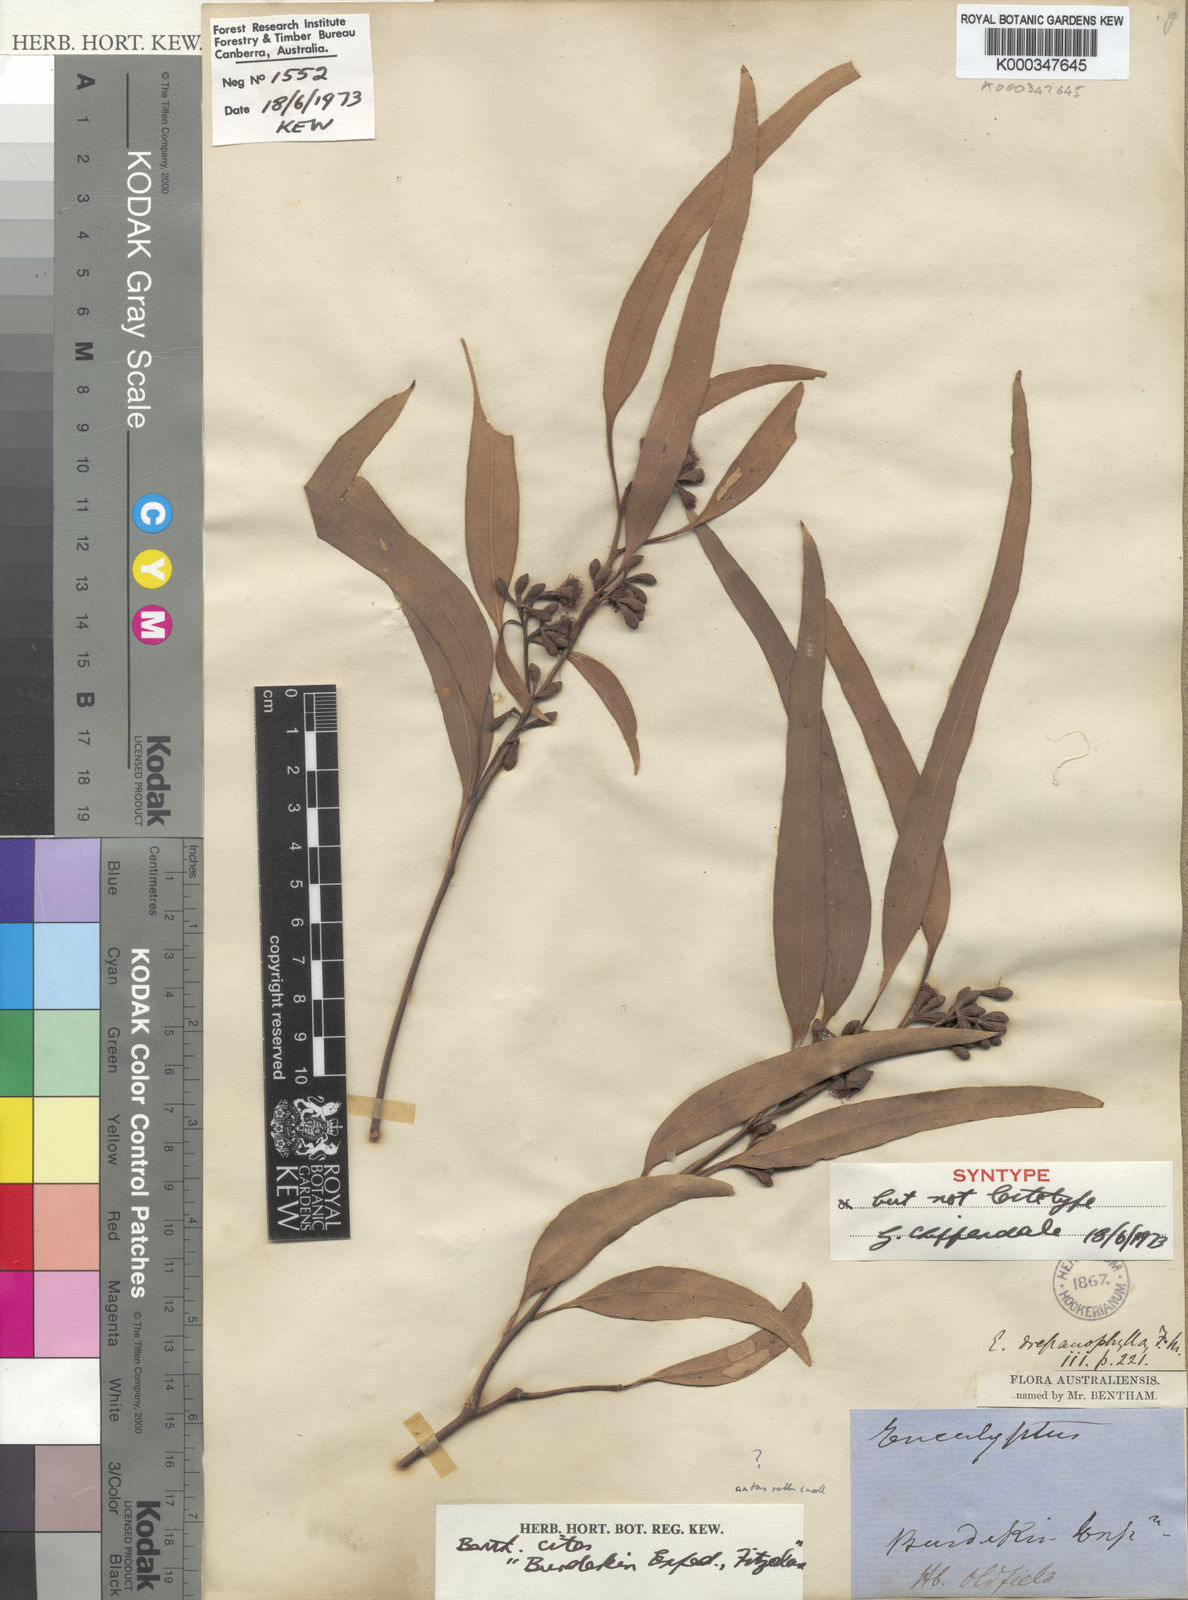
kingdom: Plantae
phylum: Tracheophyta
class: Magnoliopsida
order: Myrtales
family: Myrtaceae
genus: Eucalyptus
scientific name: Eucalyptus drepanophylla
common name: Queensland grey ironbark
